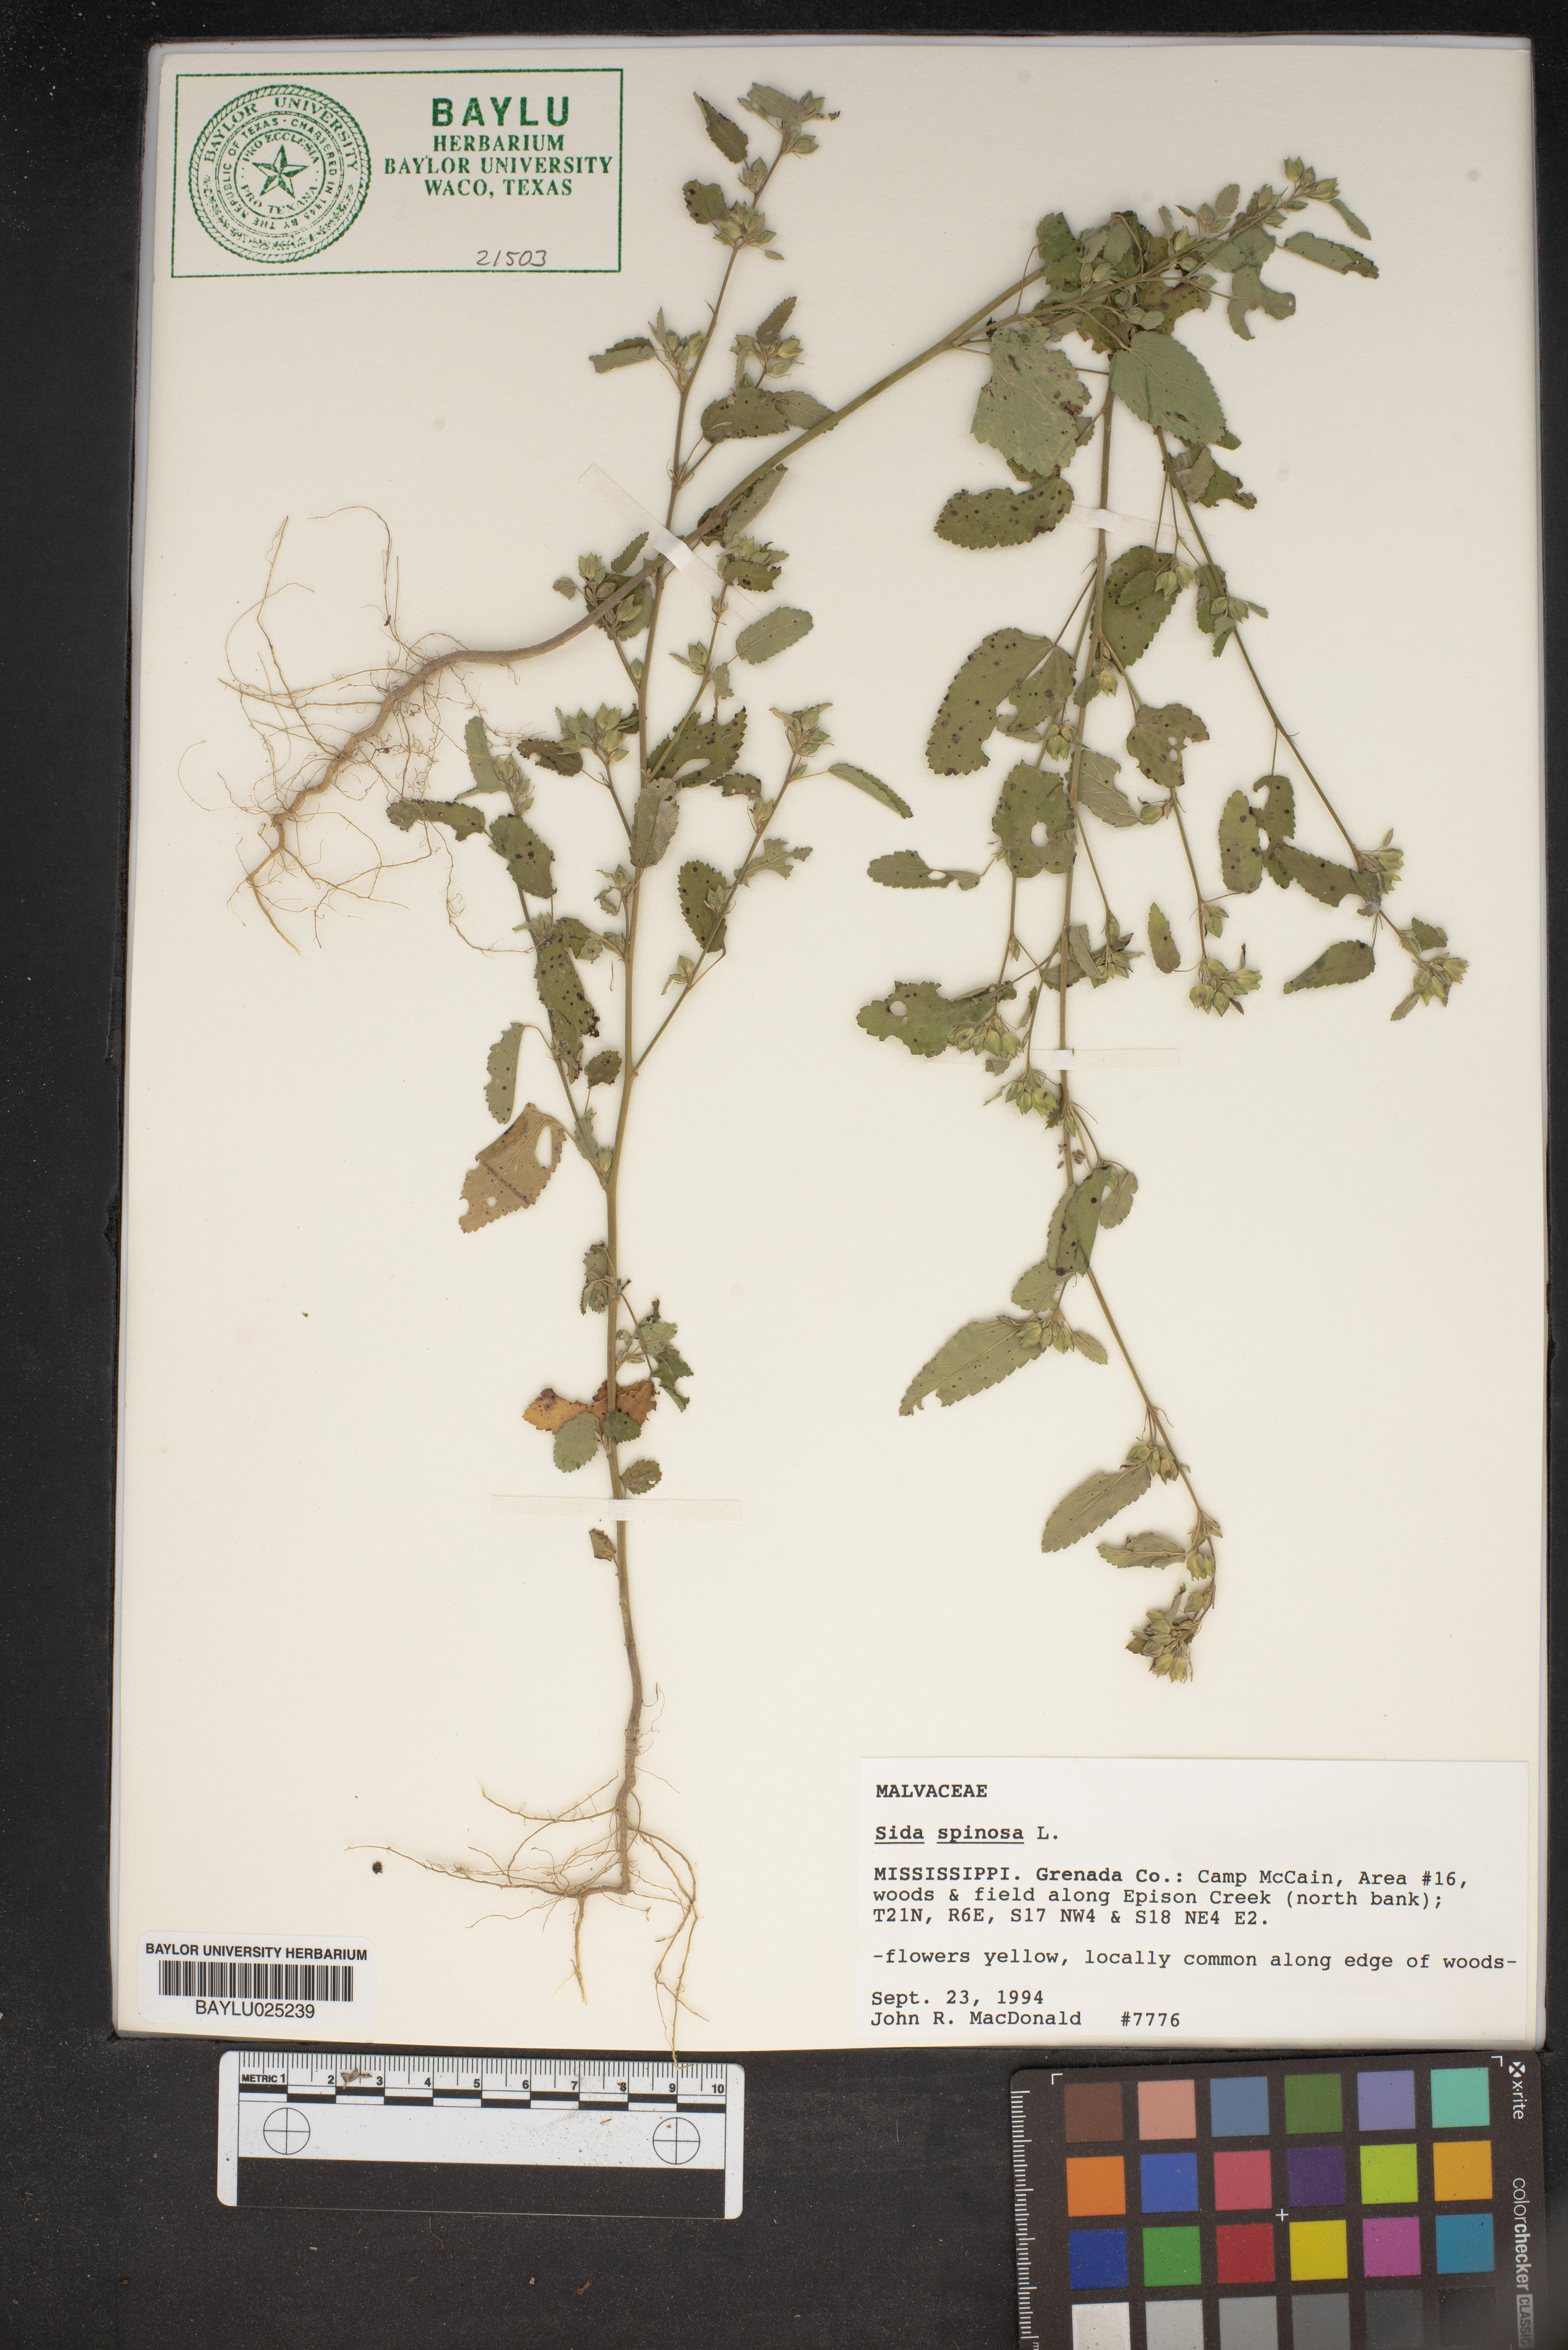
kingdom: Plantae
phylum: Tracheophyta
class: Magnoliopsida
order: Malvales
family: Malvaceae
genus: Sida
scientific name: Sida spinosa
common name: Prickly fanpetals
